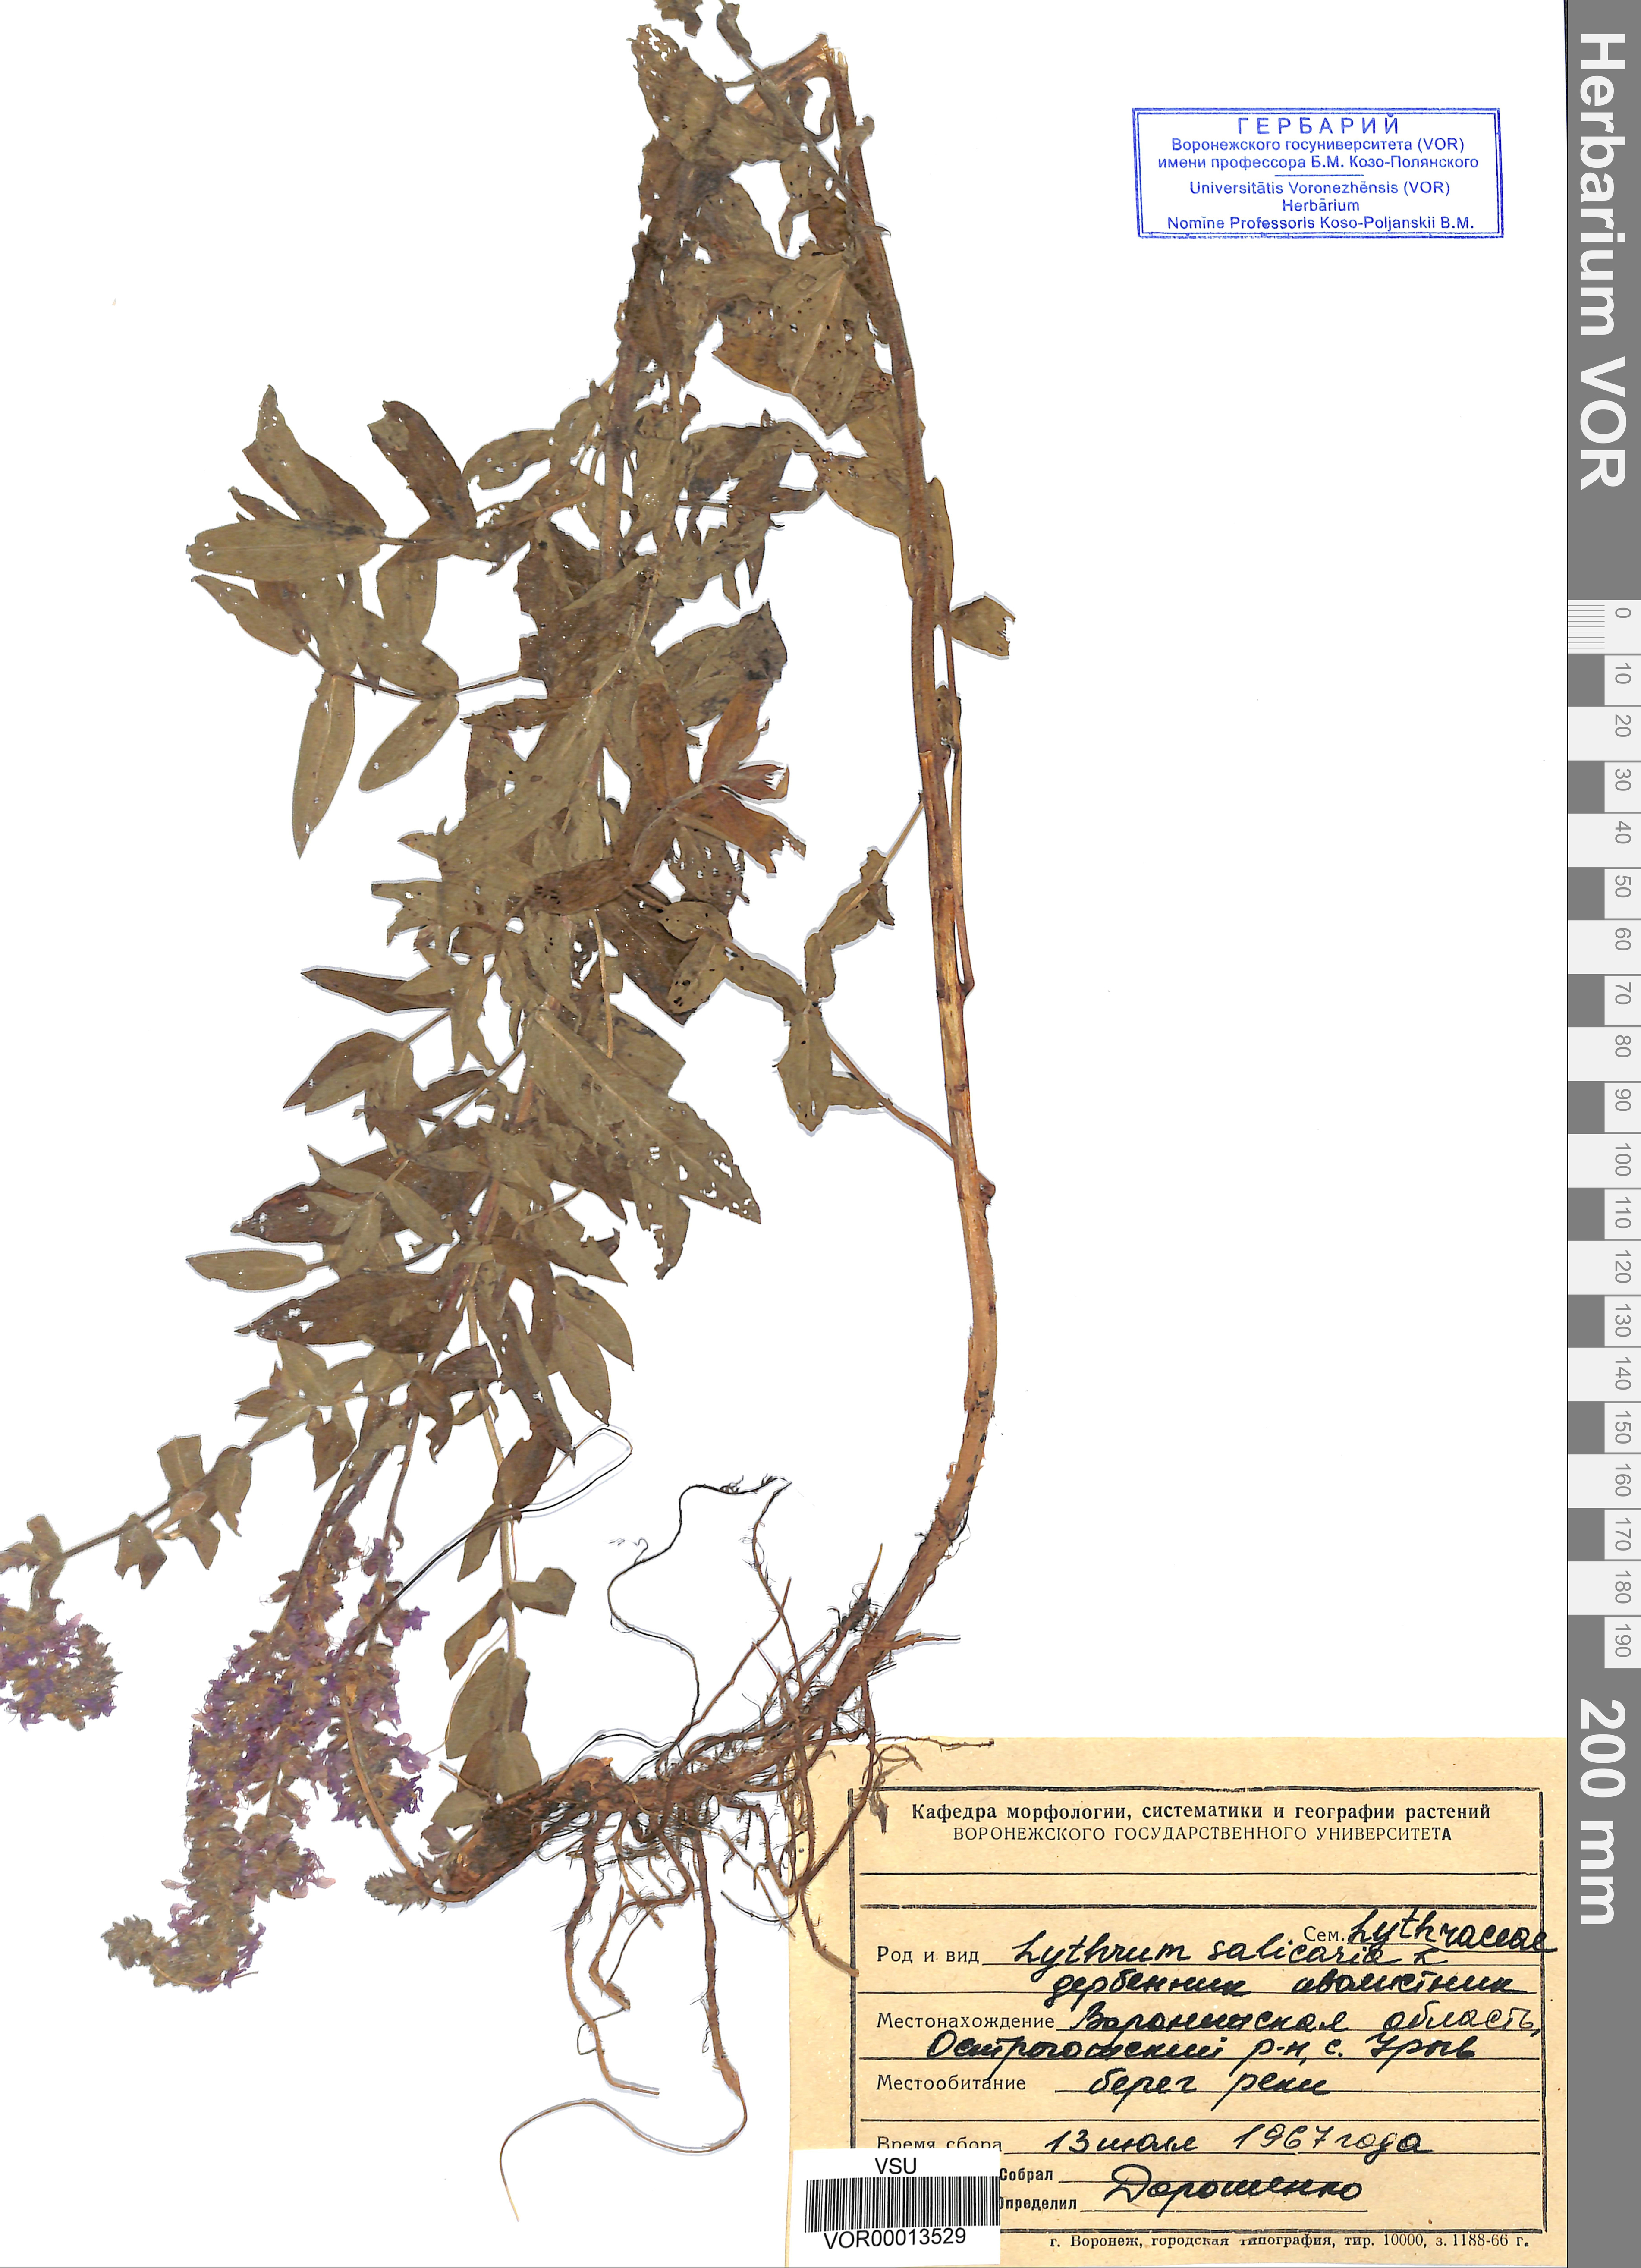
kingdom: Plantae
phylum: Tracheophyta
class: Magnoliopsida
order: Myrtales
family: Lythraceae
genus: Lythrum
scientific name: Lythrum salicaria
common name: Purple loosestrife
